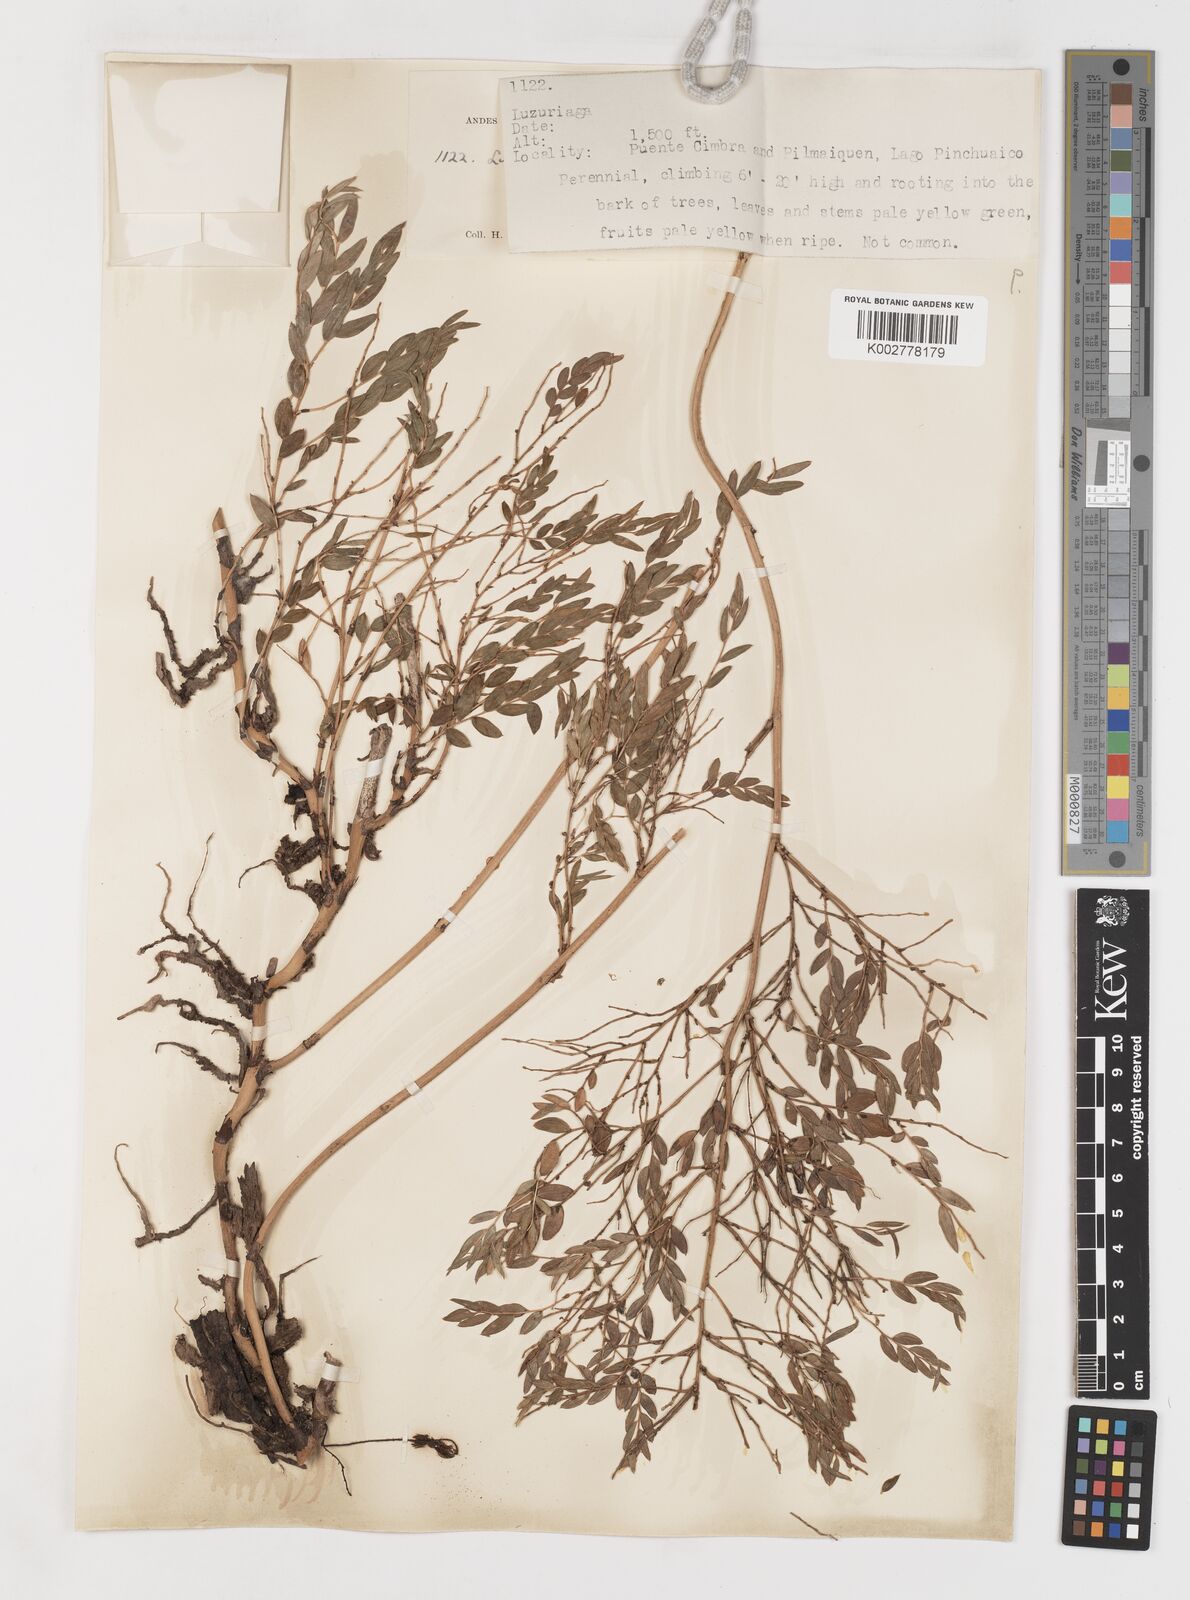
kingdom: Plantae
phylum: Tracheophyta
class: Liliopsida
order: Liliales
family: Alstroemeriaceae
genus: Luzuriaga
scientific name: Luzuriaga polyphylla
